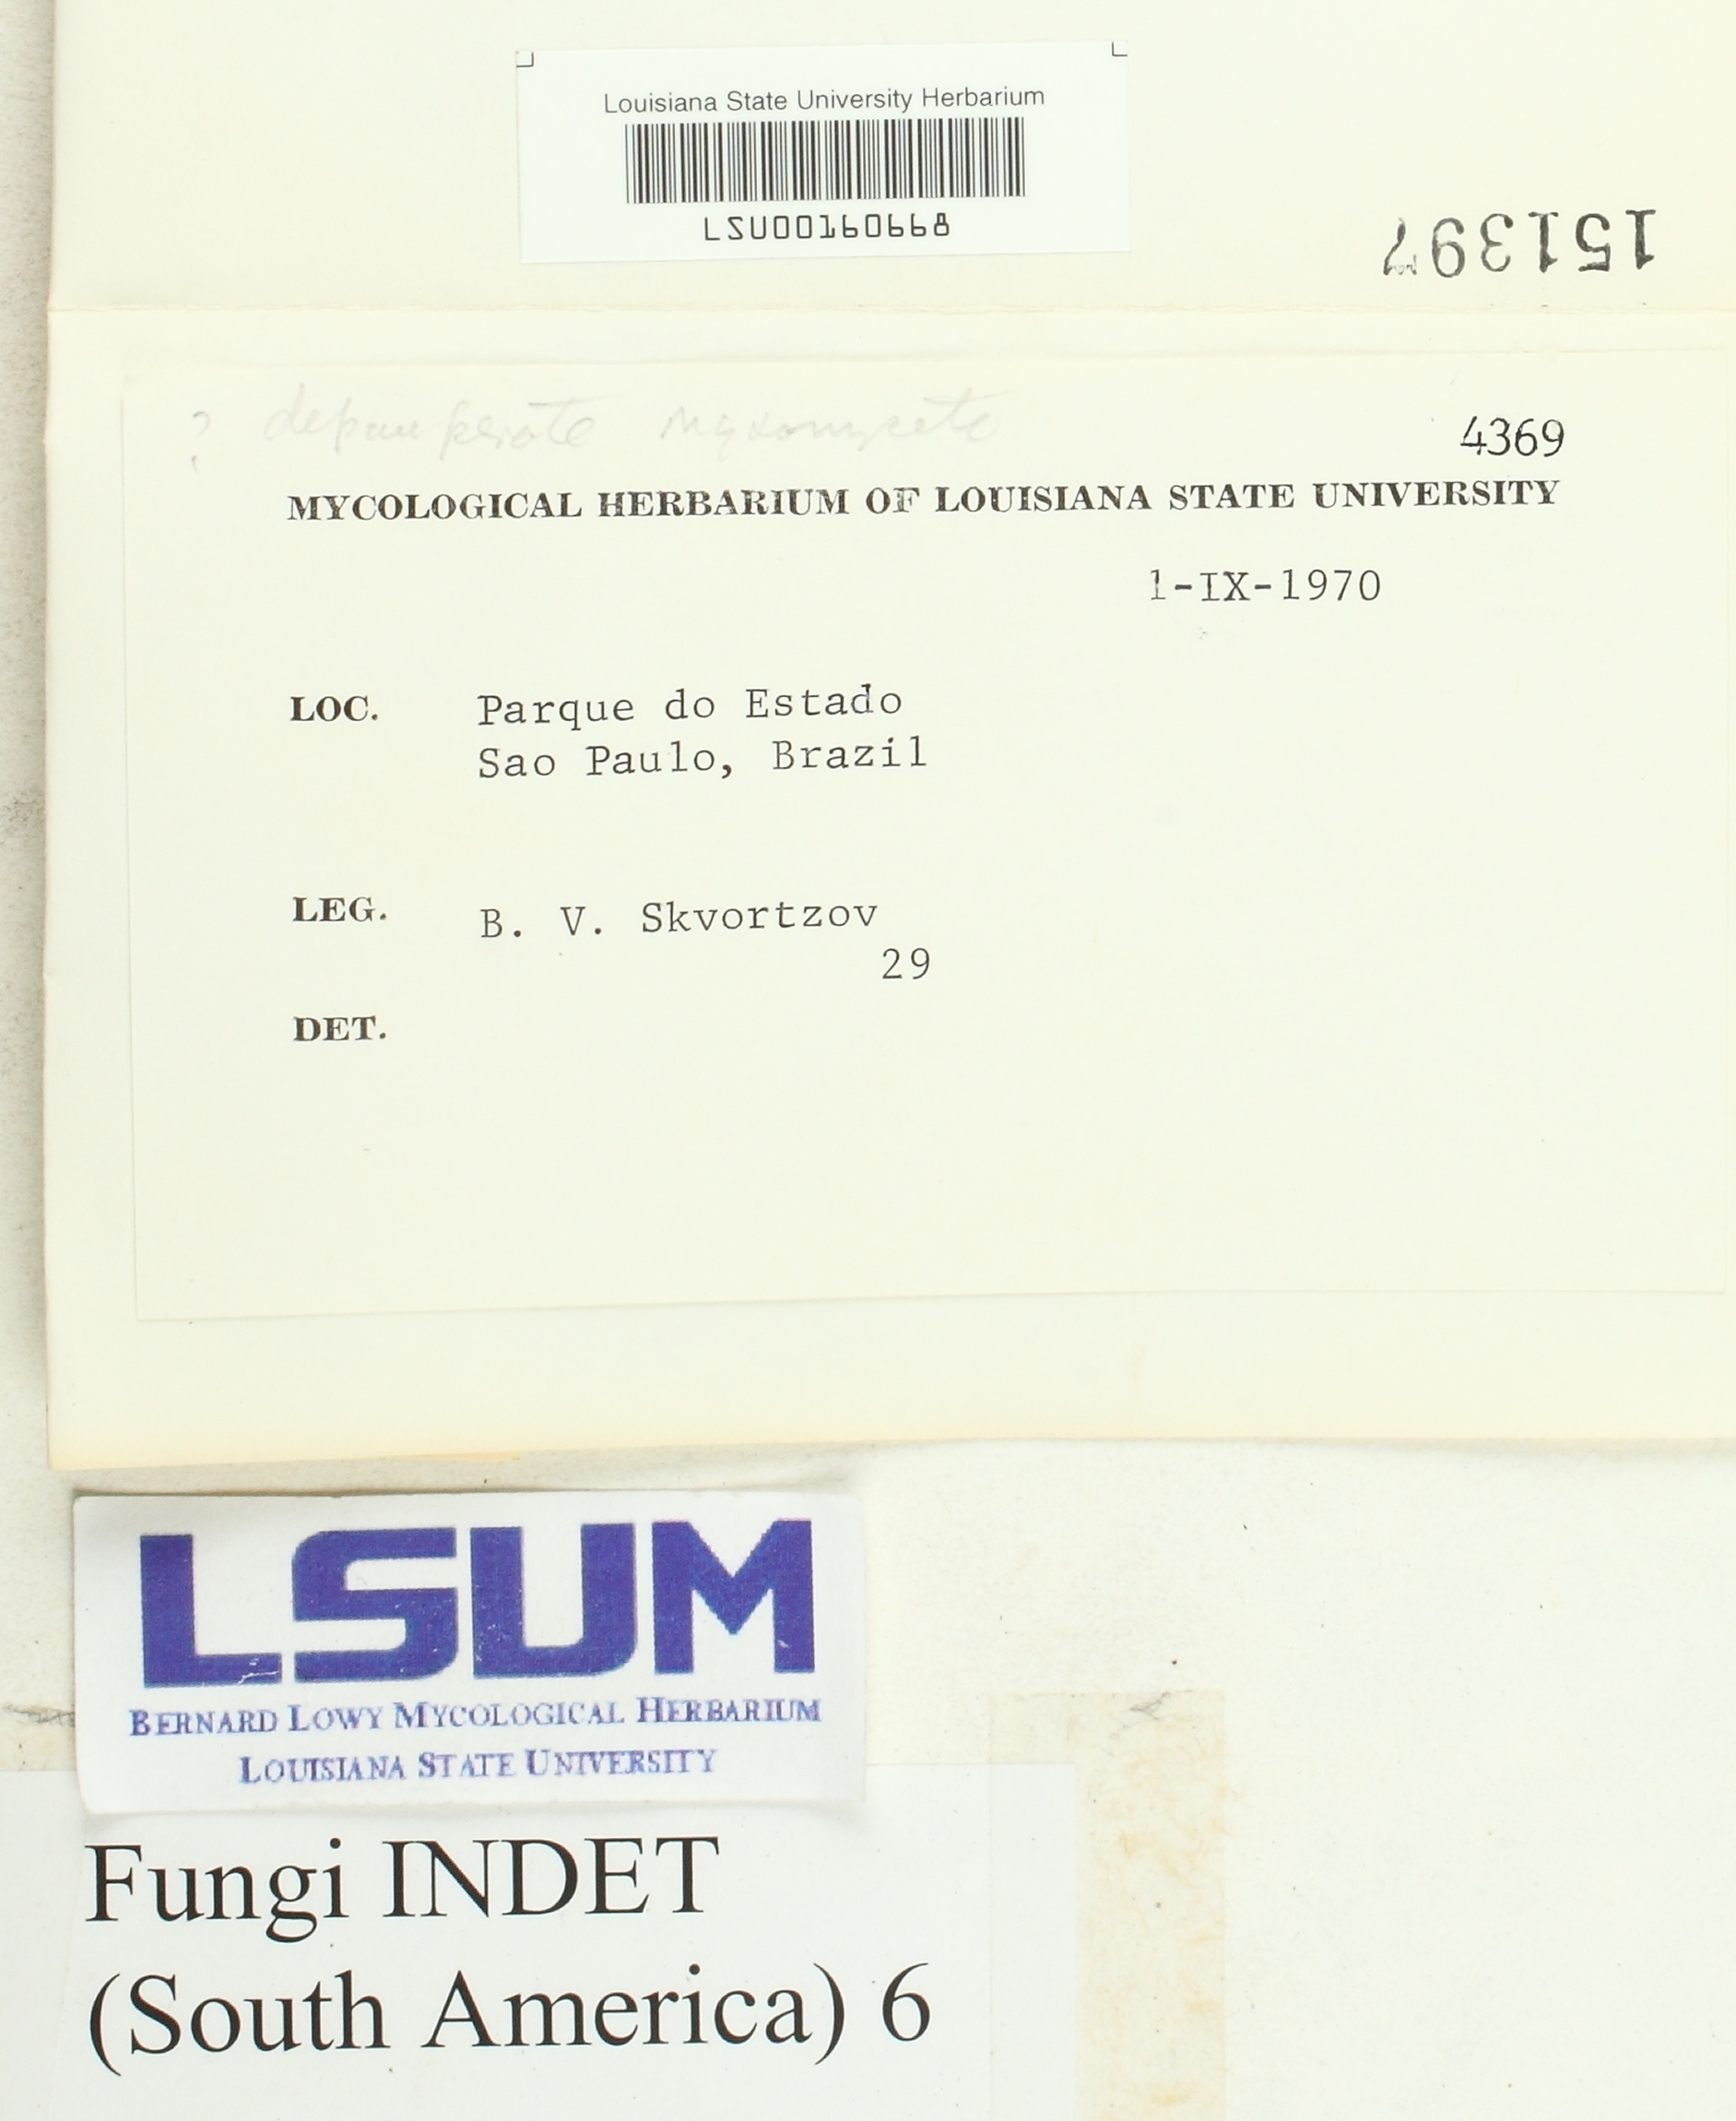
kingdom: Fungi
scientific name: Fungi
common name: Fungi
